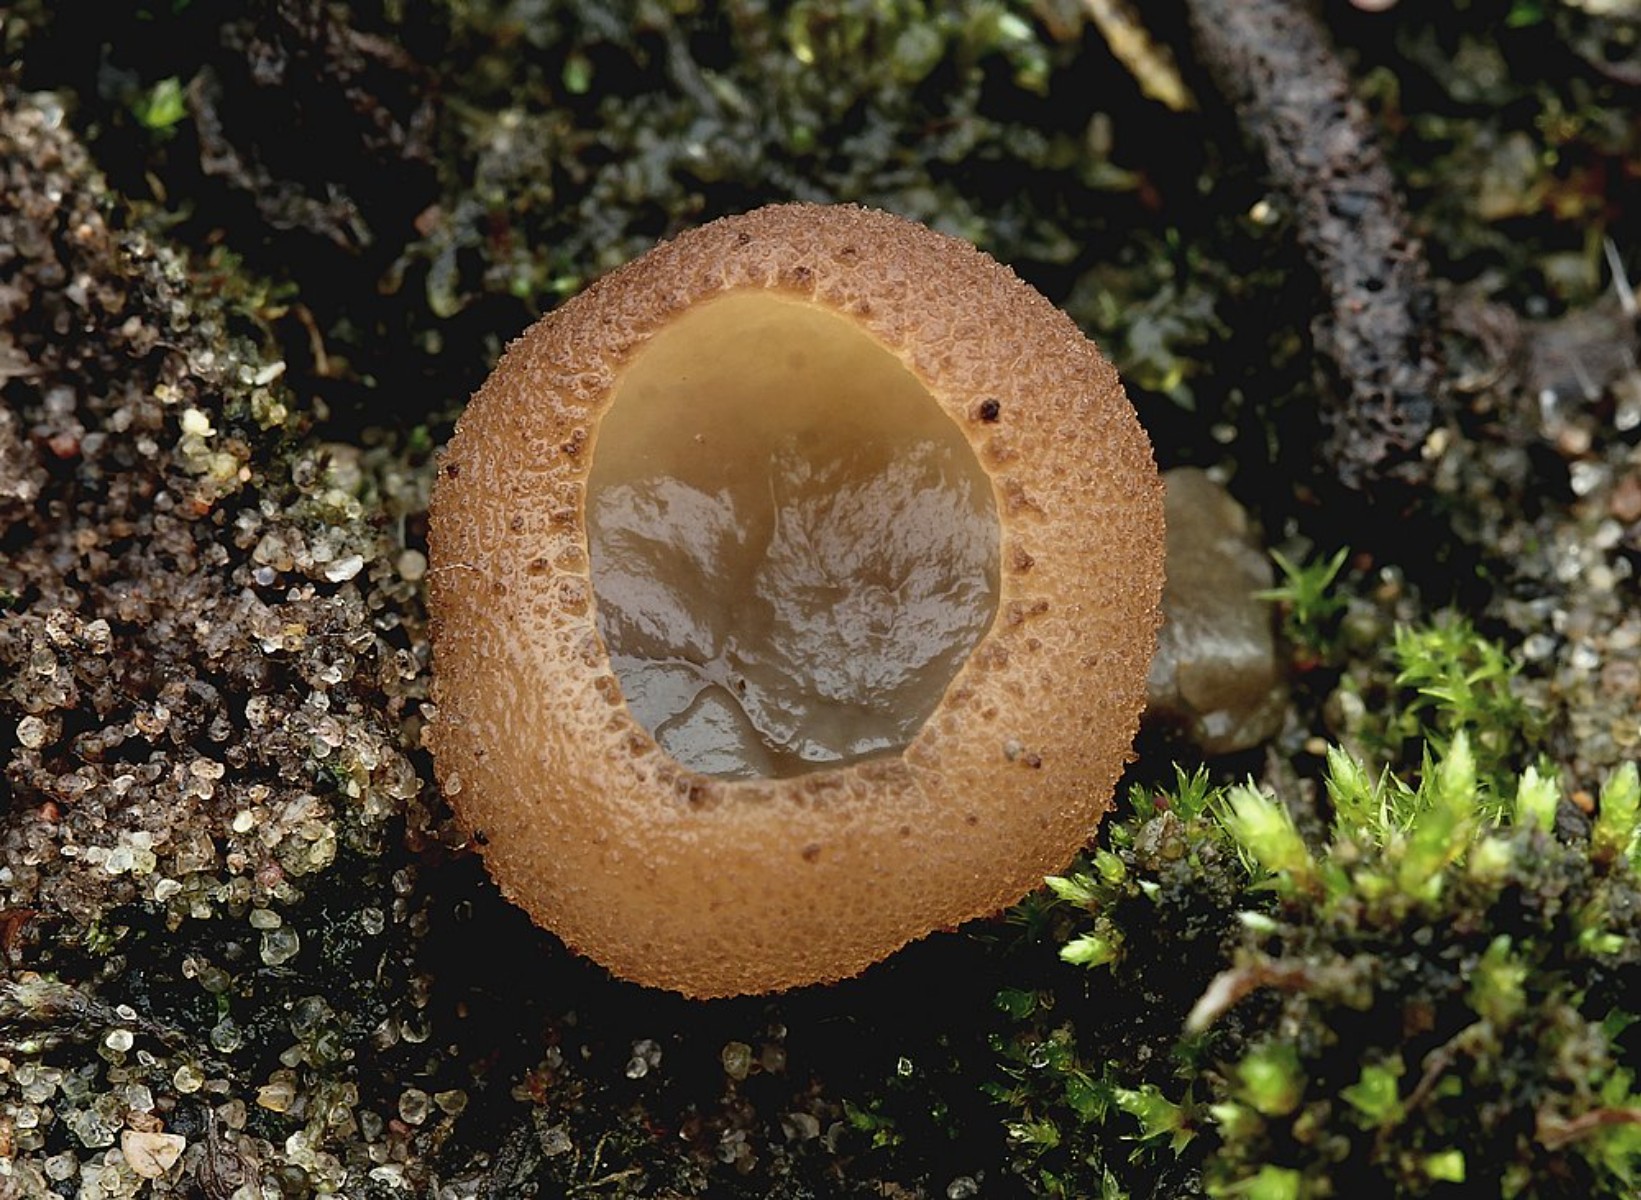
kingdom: Fungi
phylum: Ascomycota
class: Pezizomycetes
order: Pezizales
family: Pezizaceae
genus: Peziza
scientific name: Peziza
